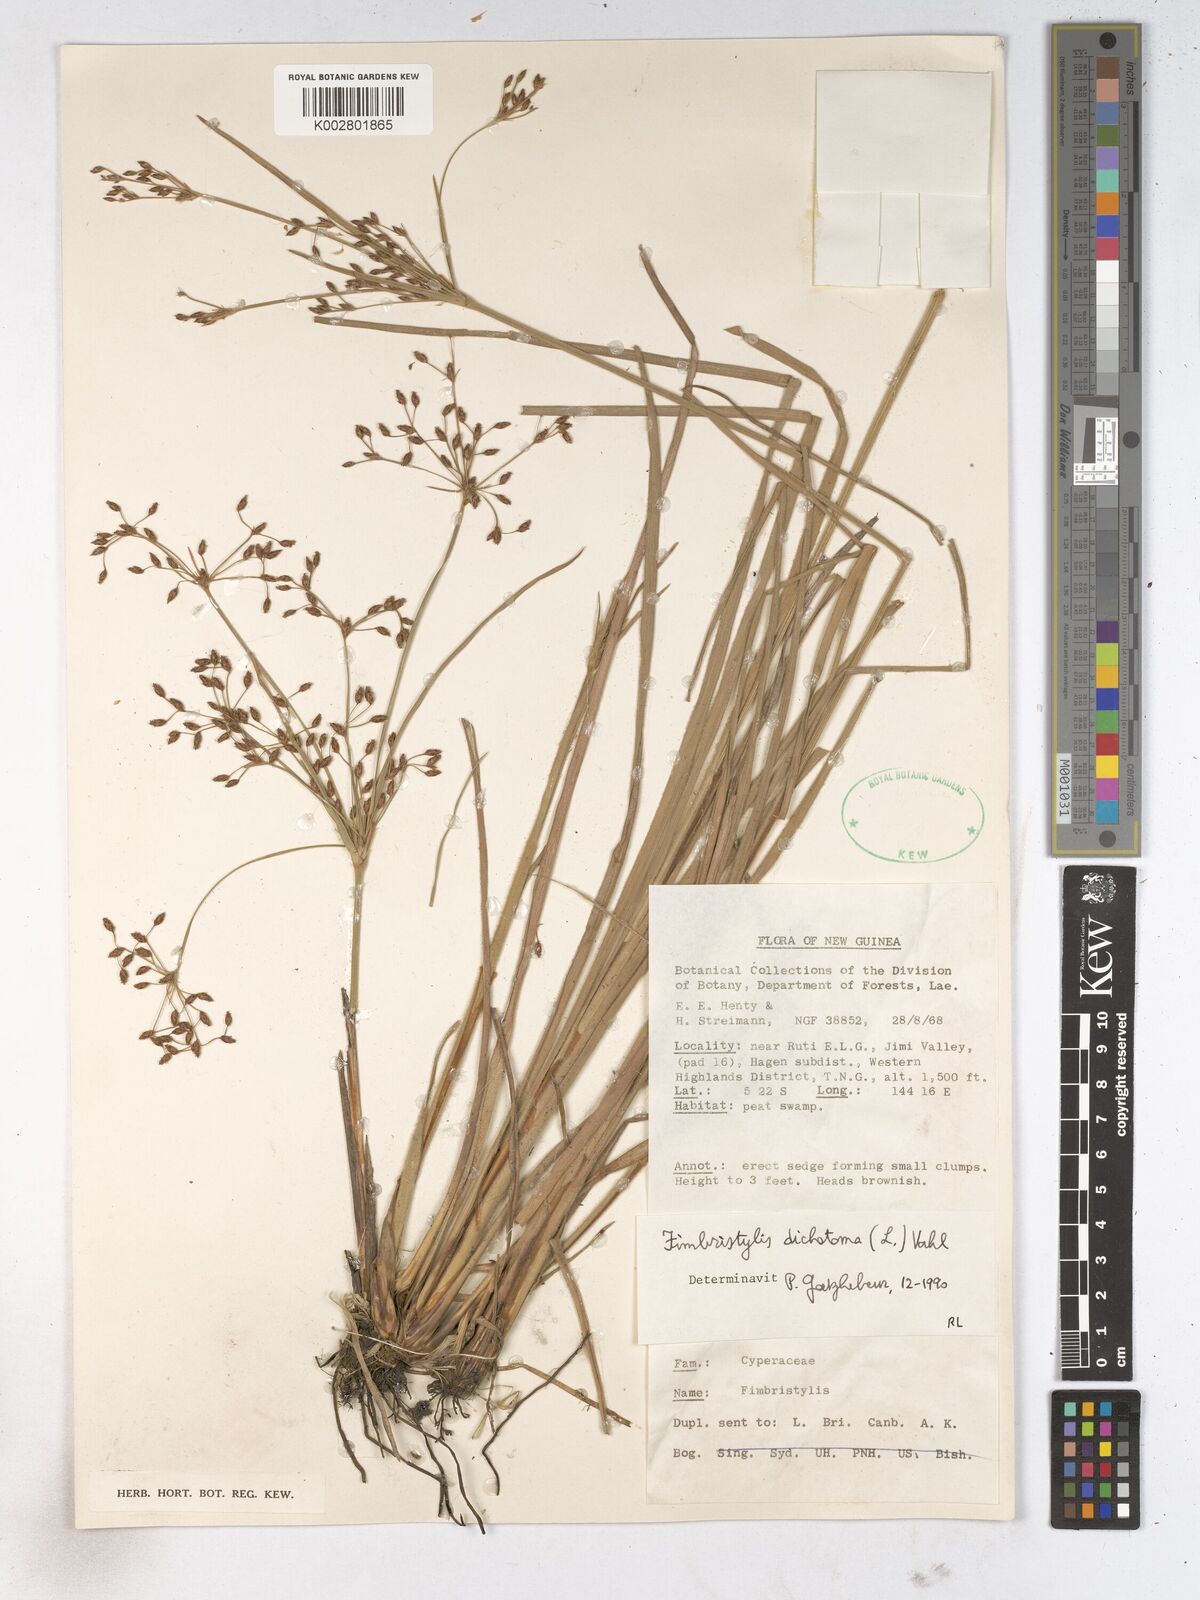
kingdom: Plantae
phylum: Tracheophyta
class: Liliopsida
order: Poales
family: Cyperaceae
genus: Fimbristylis
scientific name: Fimbristylis dichotoma
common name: Forked fimbry
